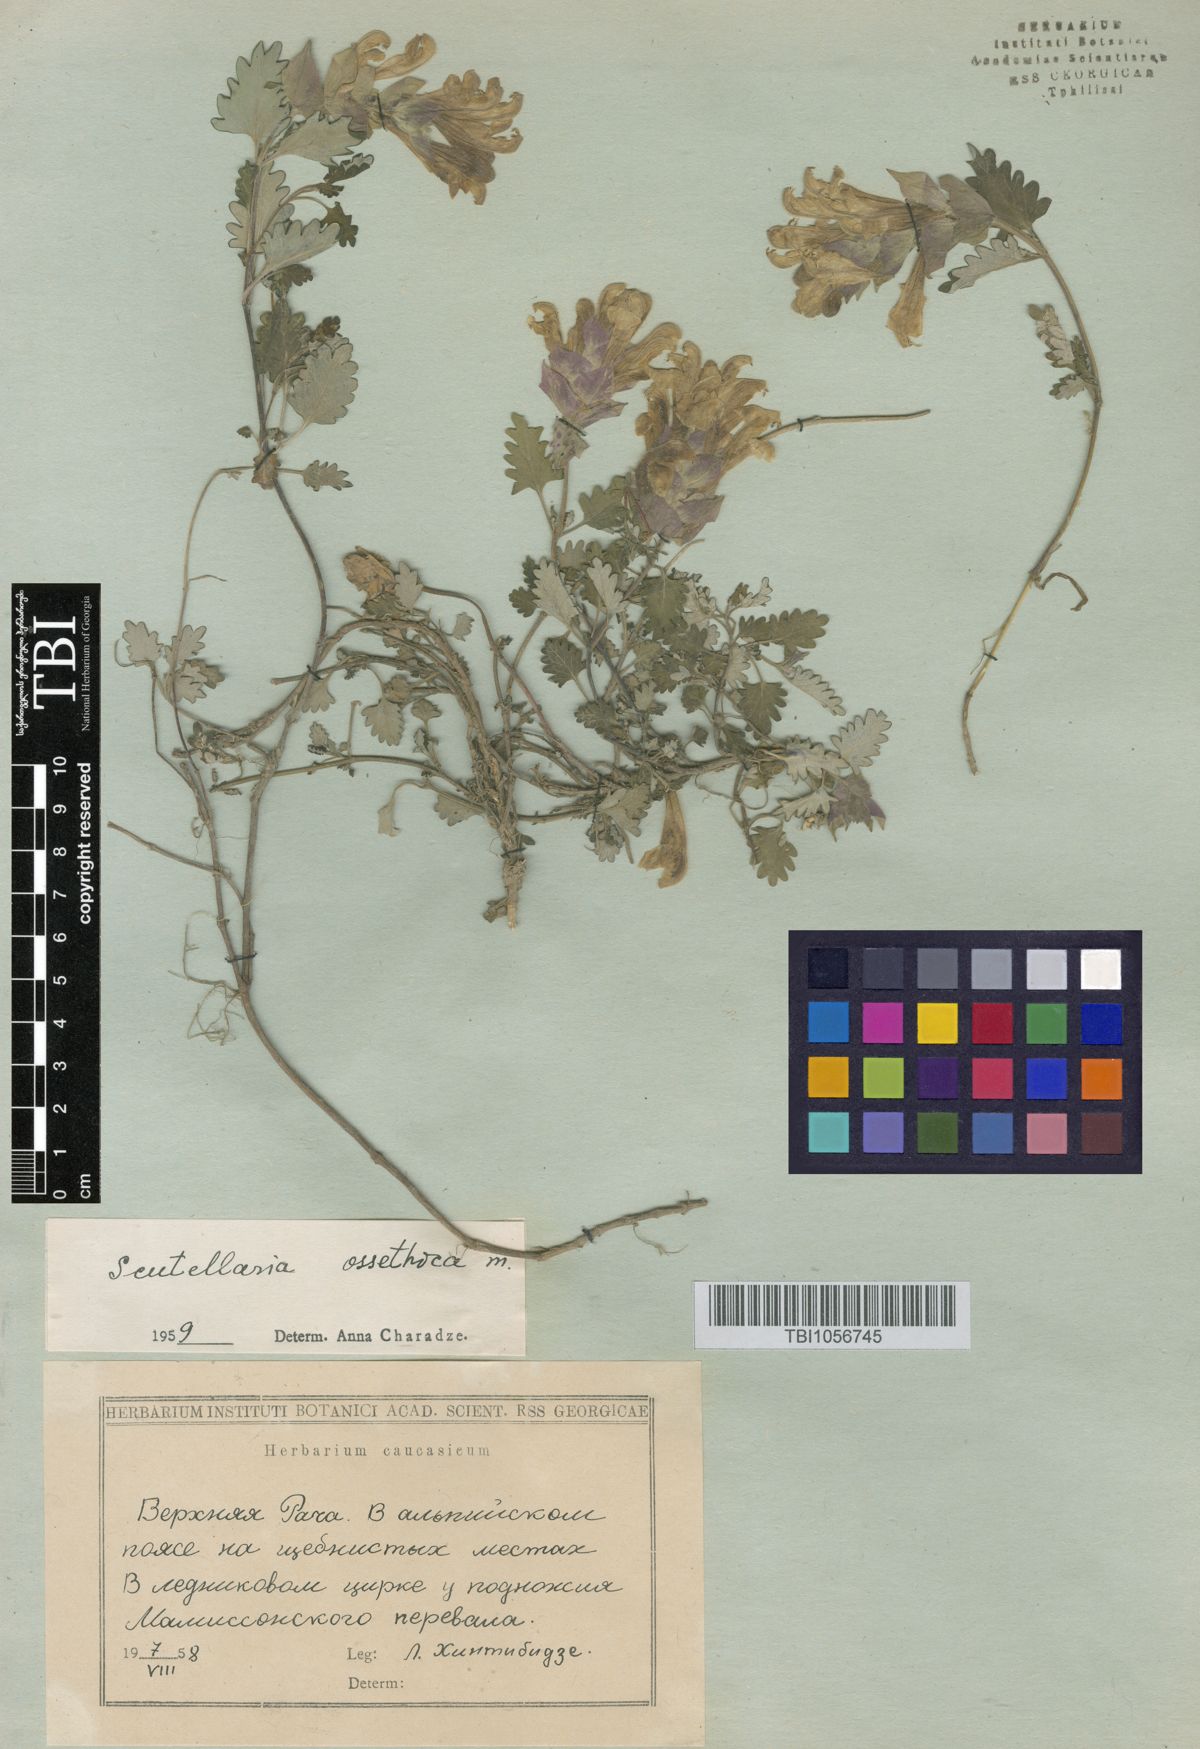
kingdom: Plantae
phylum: Tracheophyta
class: Magnoliopsida
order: Lamiales
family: Lamiaceae
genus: Scutellaria
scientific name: Scutellaria ossethica
